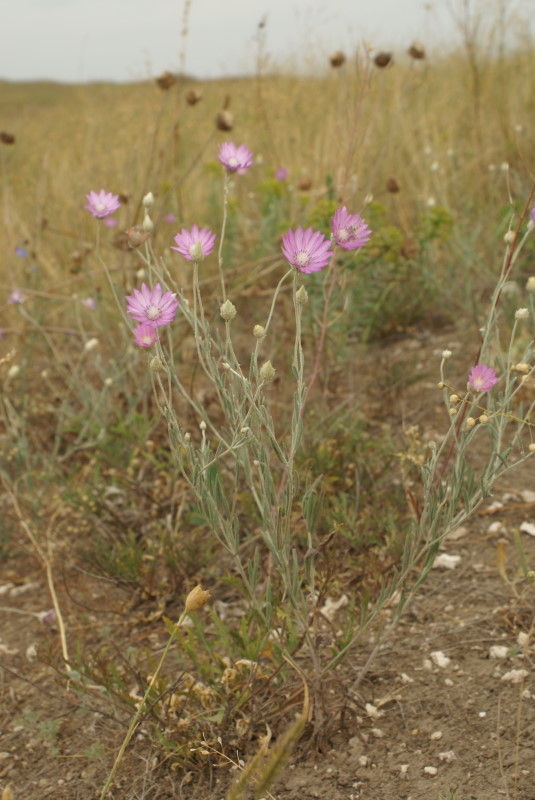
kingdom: Plantae
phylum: Tracheophyta
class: Magnoliopsida
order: Asterales
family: Asteraceae
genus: Xeranthemum
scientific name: Xeranthemum annuum
